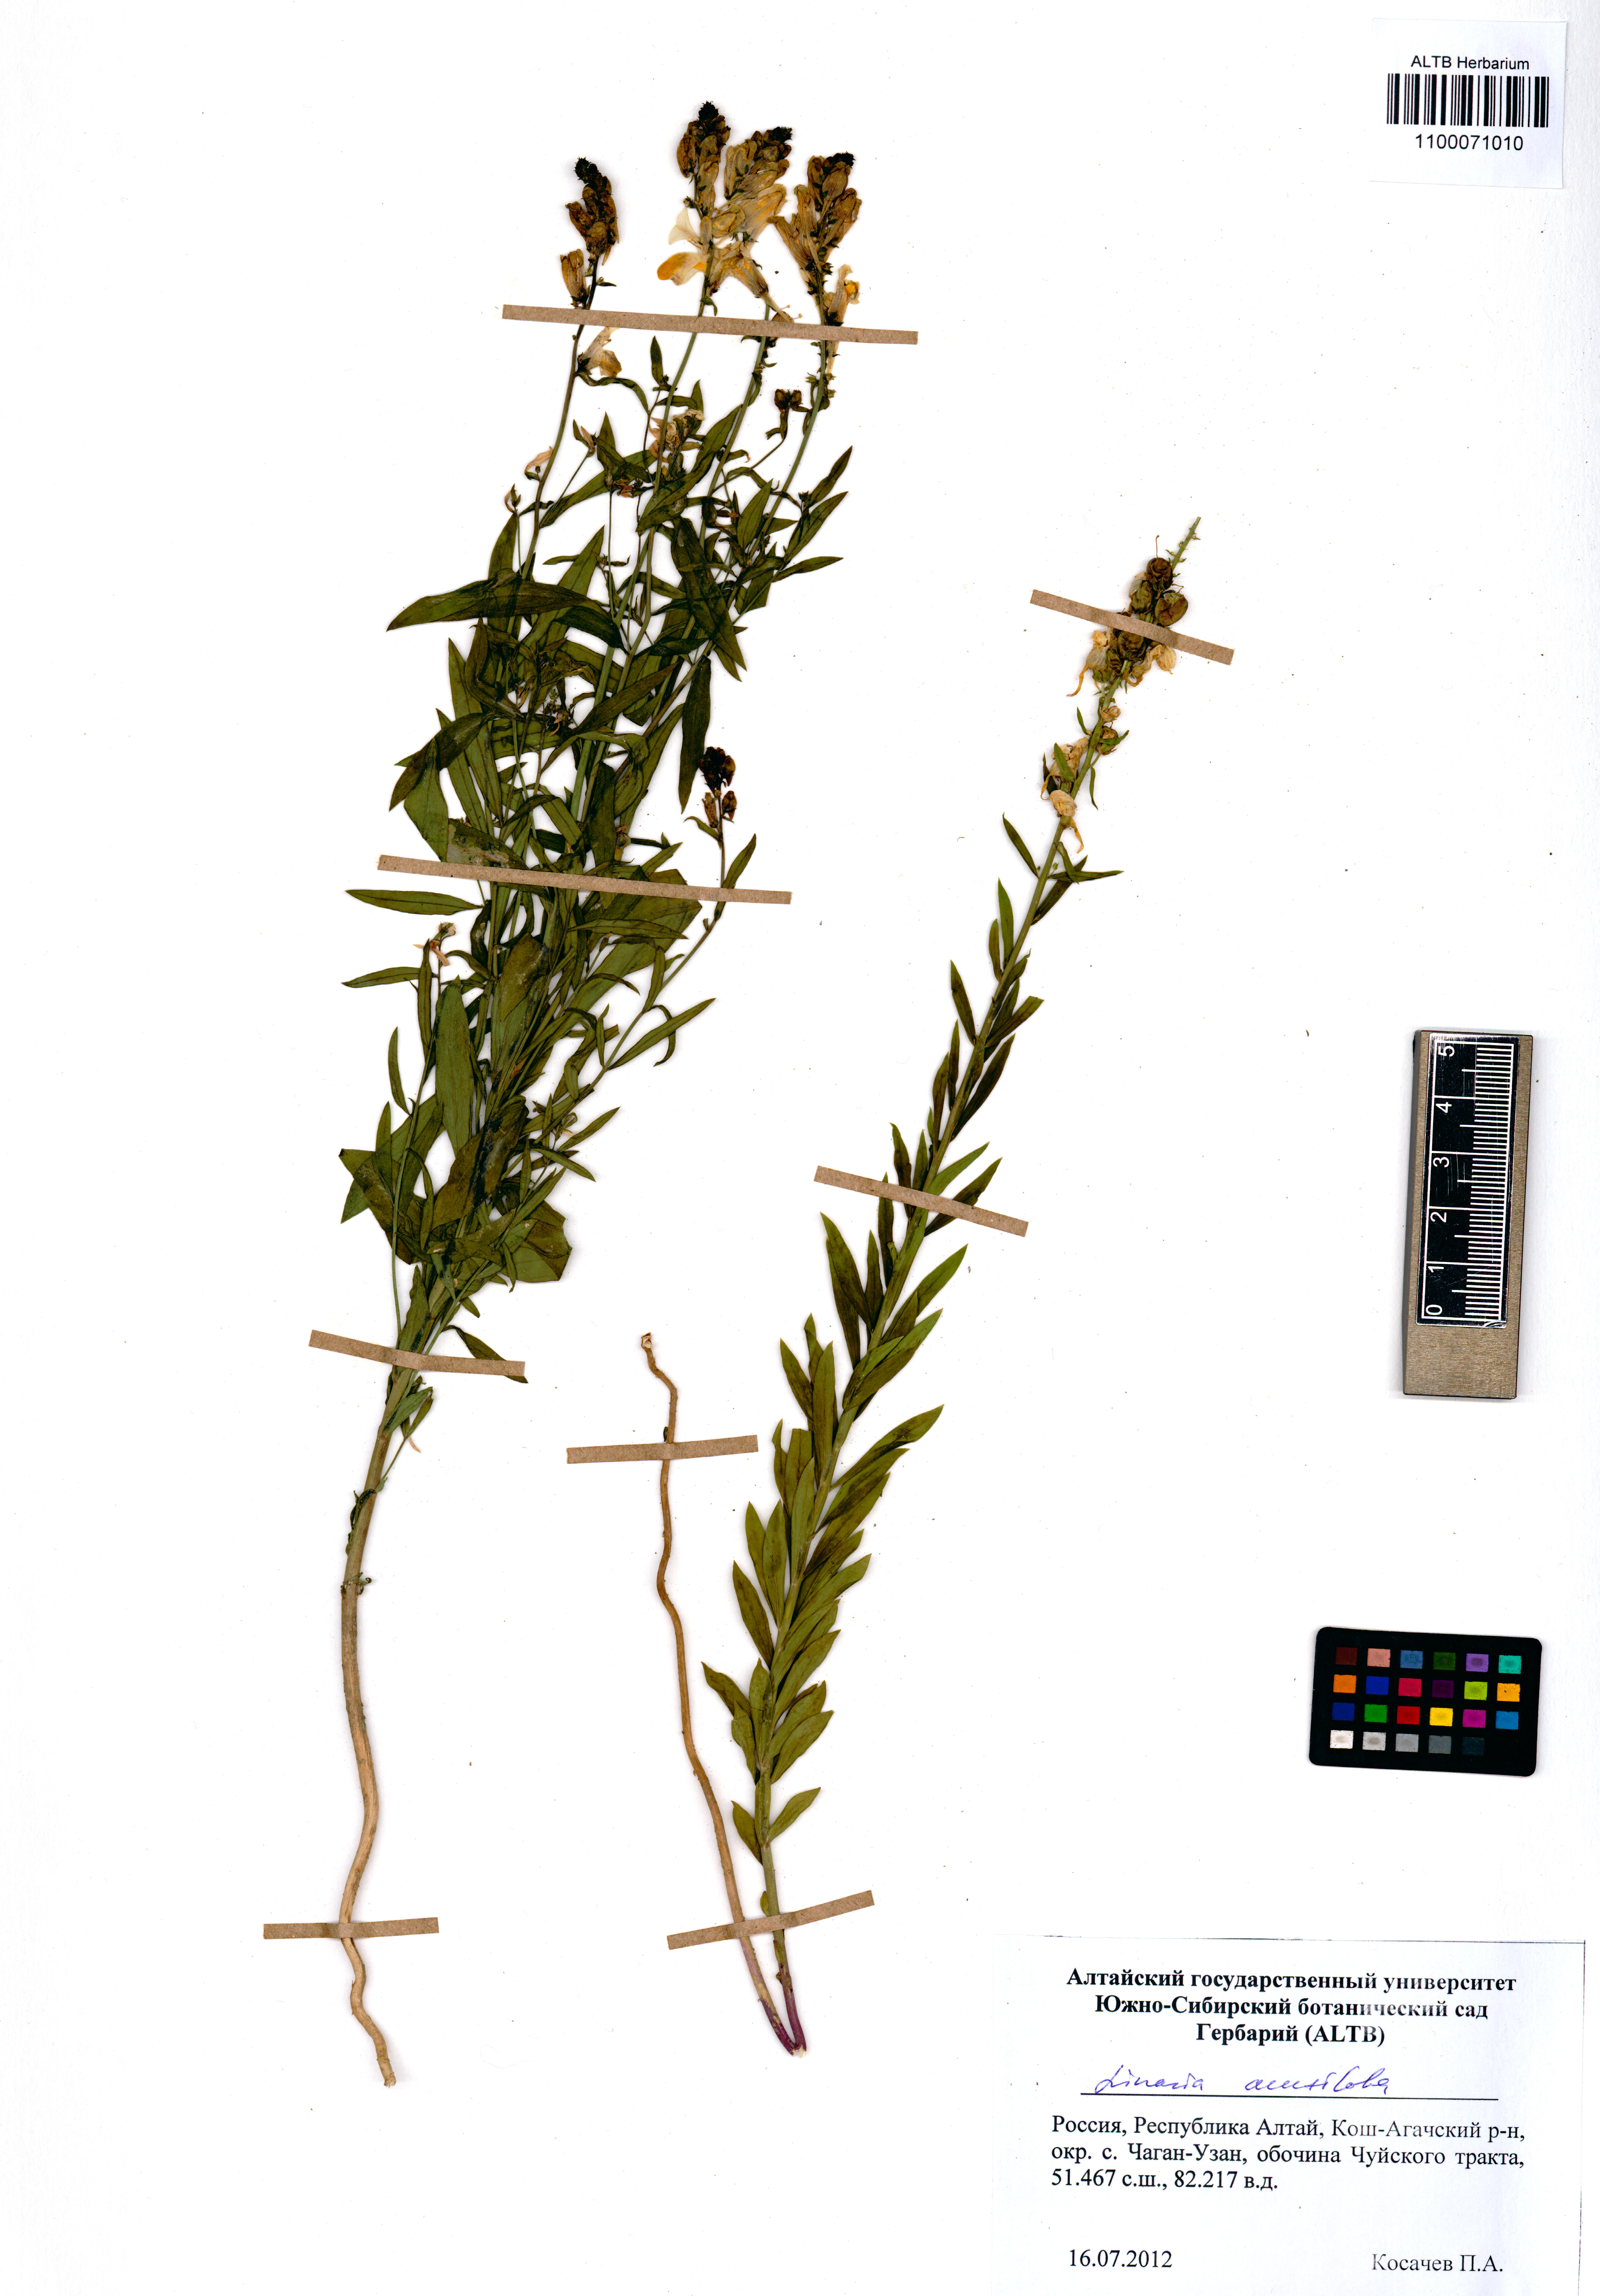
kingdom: Plantae
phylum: Tracheophyta
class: Magnoliopsida
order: Lamiales
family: Plantaginaceae
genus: Linaria
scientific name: Linaria acutiloba
